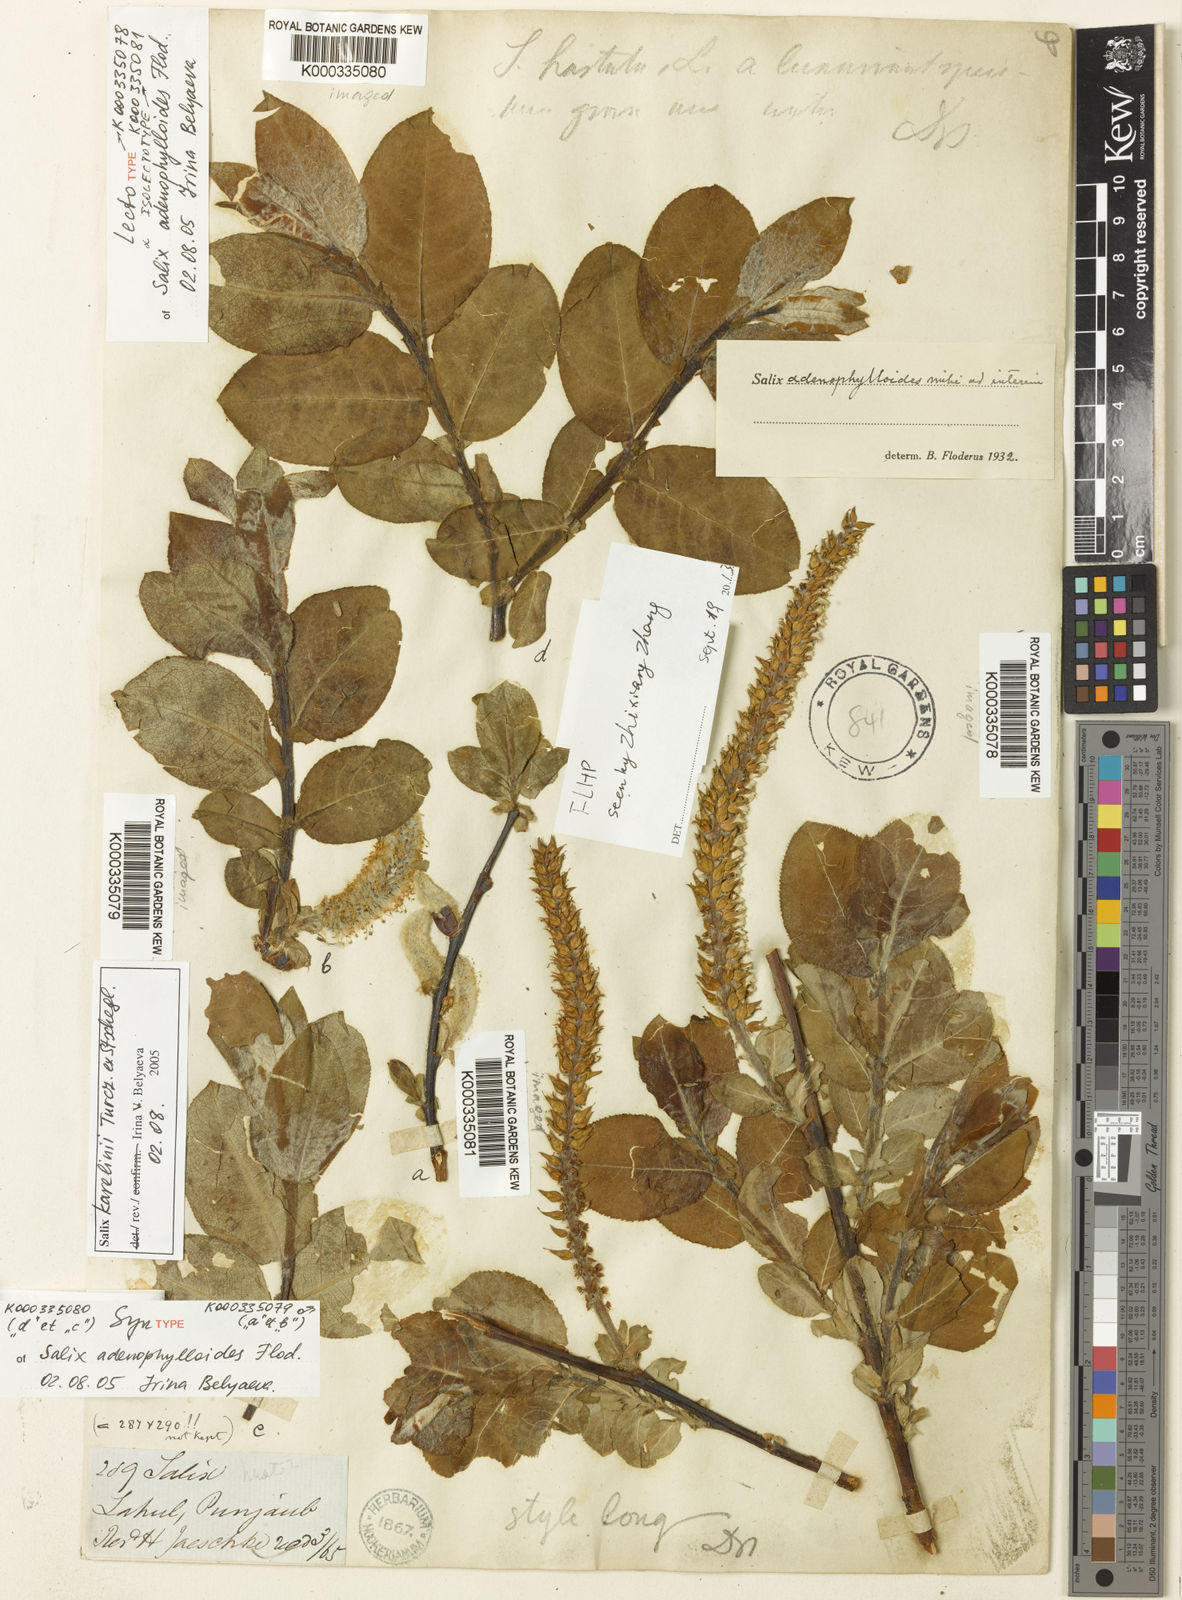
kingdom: Plantae
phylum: Tracheophyta
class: Magnoliopsida
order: Malpighiales
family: Salicaceae
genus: Salix
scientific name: Salix karelinii
